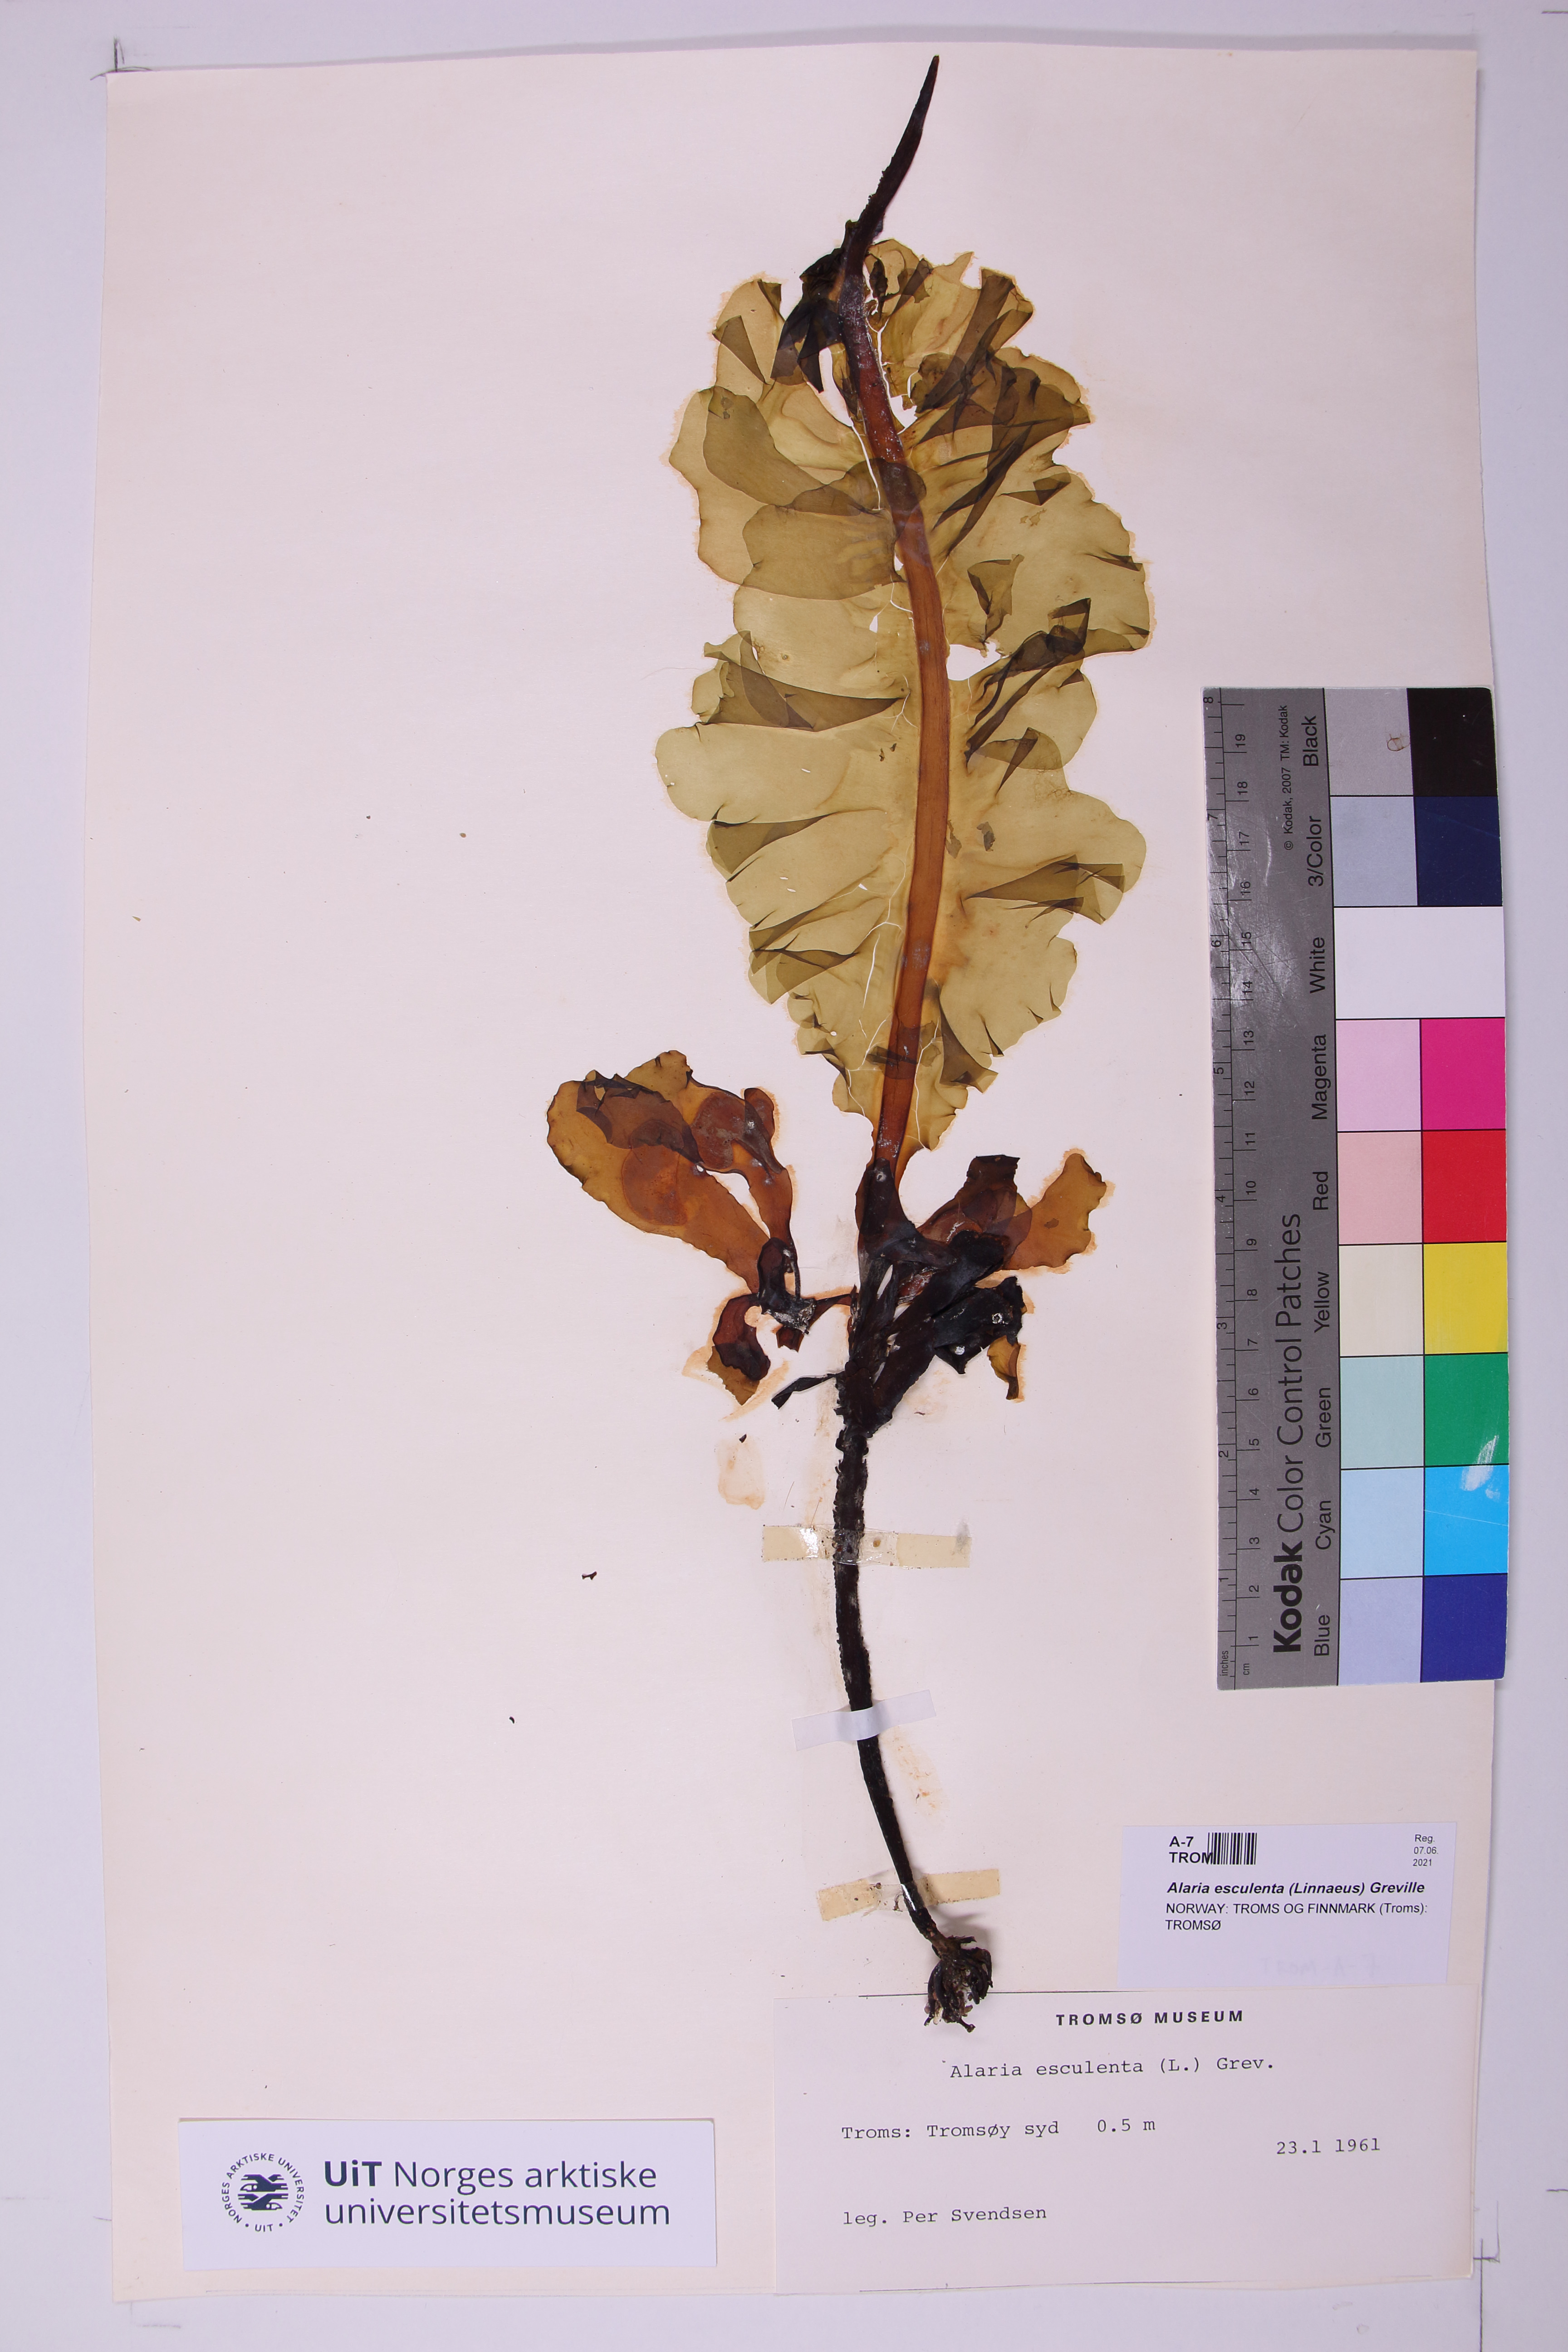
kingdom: Chromista
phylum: Ochrophyta
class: Phaeophyceae
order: Laminariales
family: Alariaceae
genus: Alaria
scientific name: Alaria esculenta
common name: Dabberlocks
